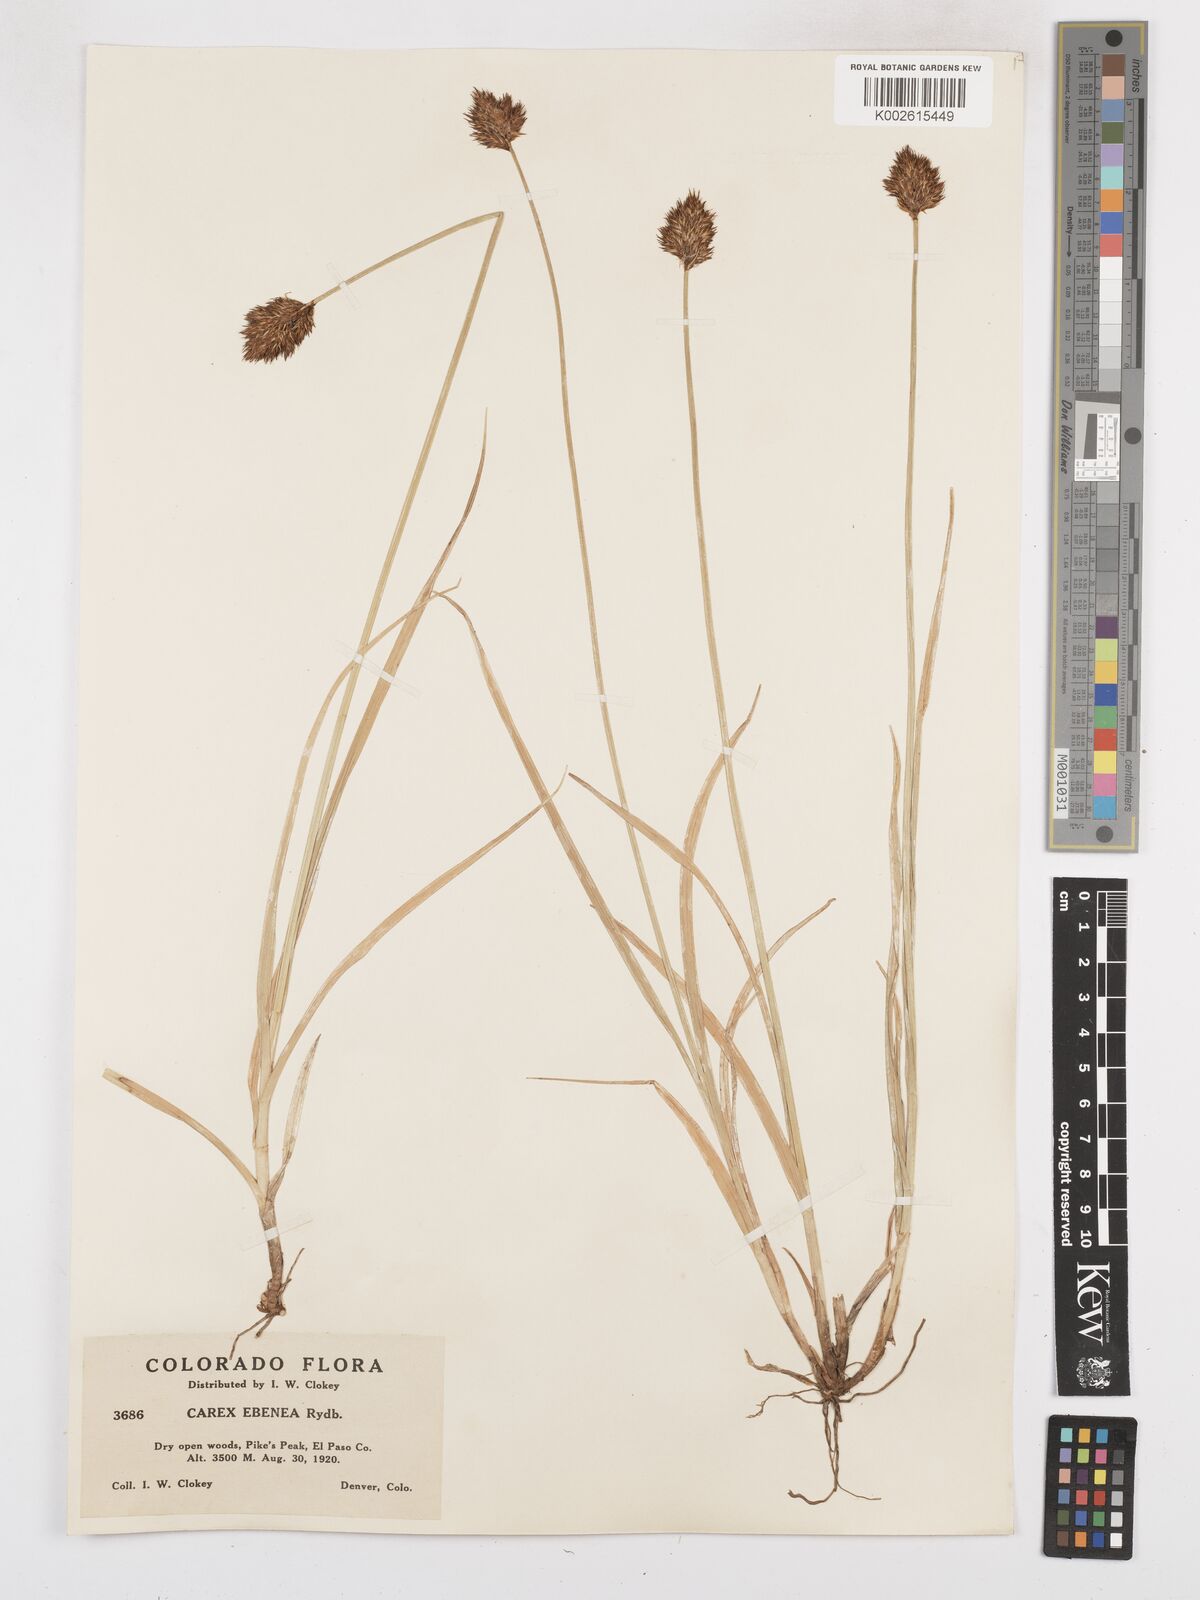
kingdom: Plantae
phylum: Tracheophyta
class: Liliopsida
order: Poales
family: Cyperaceae
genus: Carex
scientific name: Carex eburnea
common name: Bristle-leaved sedge
